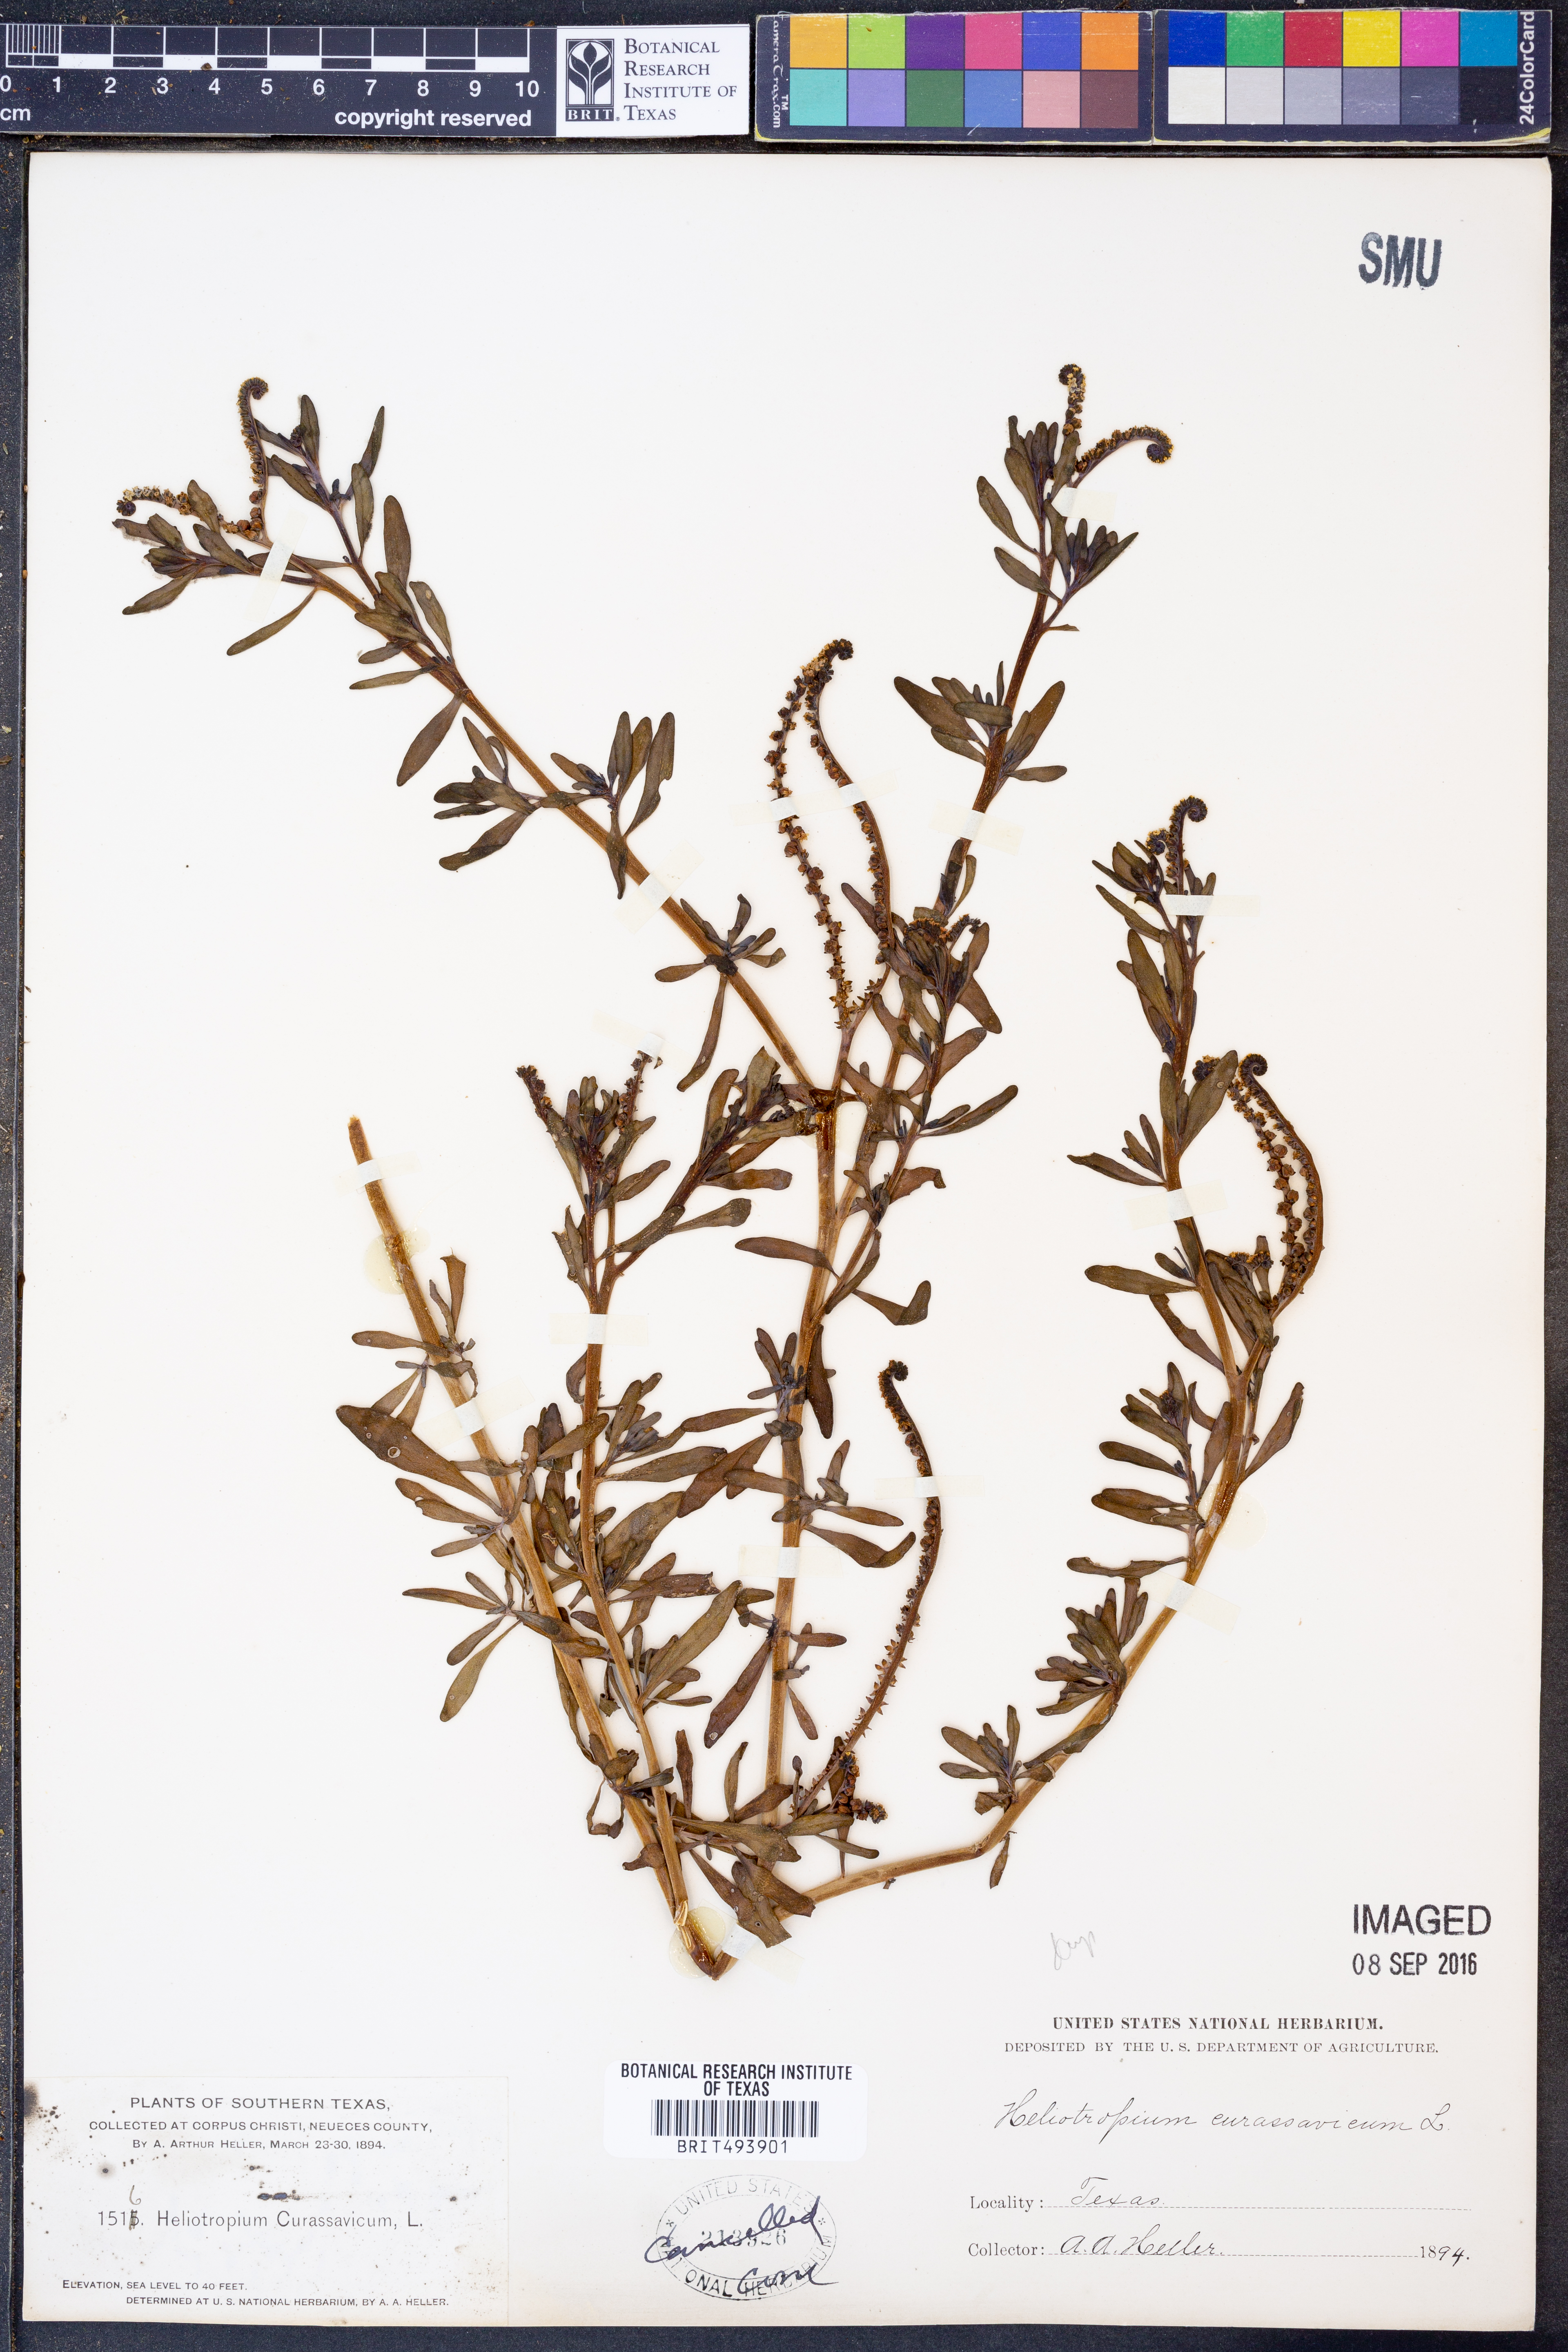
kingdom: Plantae
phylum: Tracheophyta
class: Magnoliopsida
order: Boraginales
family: Heliotropiaceae
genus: Heliotropium
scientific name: Heliotropium curassavicum
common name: Seaside heliotrope
